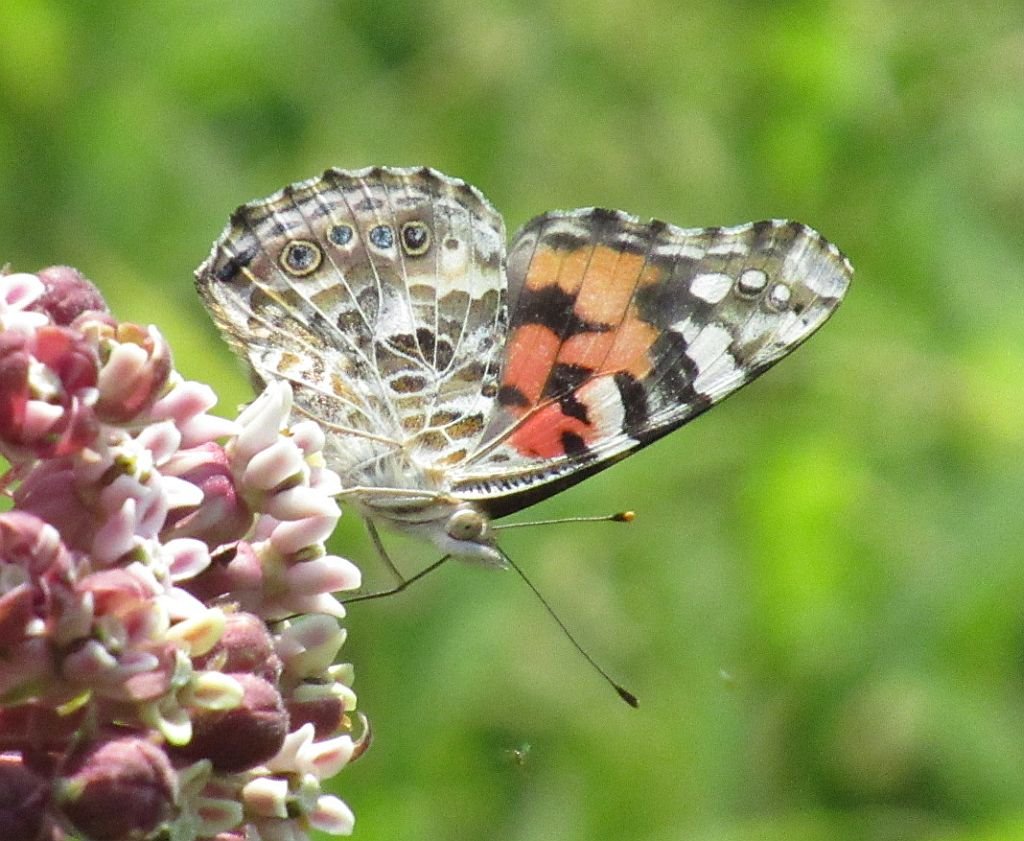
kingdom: Animalia
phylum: Arthropoda
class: Insecta
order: Lepidoptera
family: Nymphalidae
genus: Vanessa
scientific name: Vanessa cardui
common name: Painted Lady
